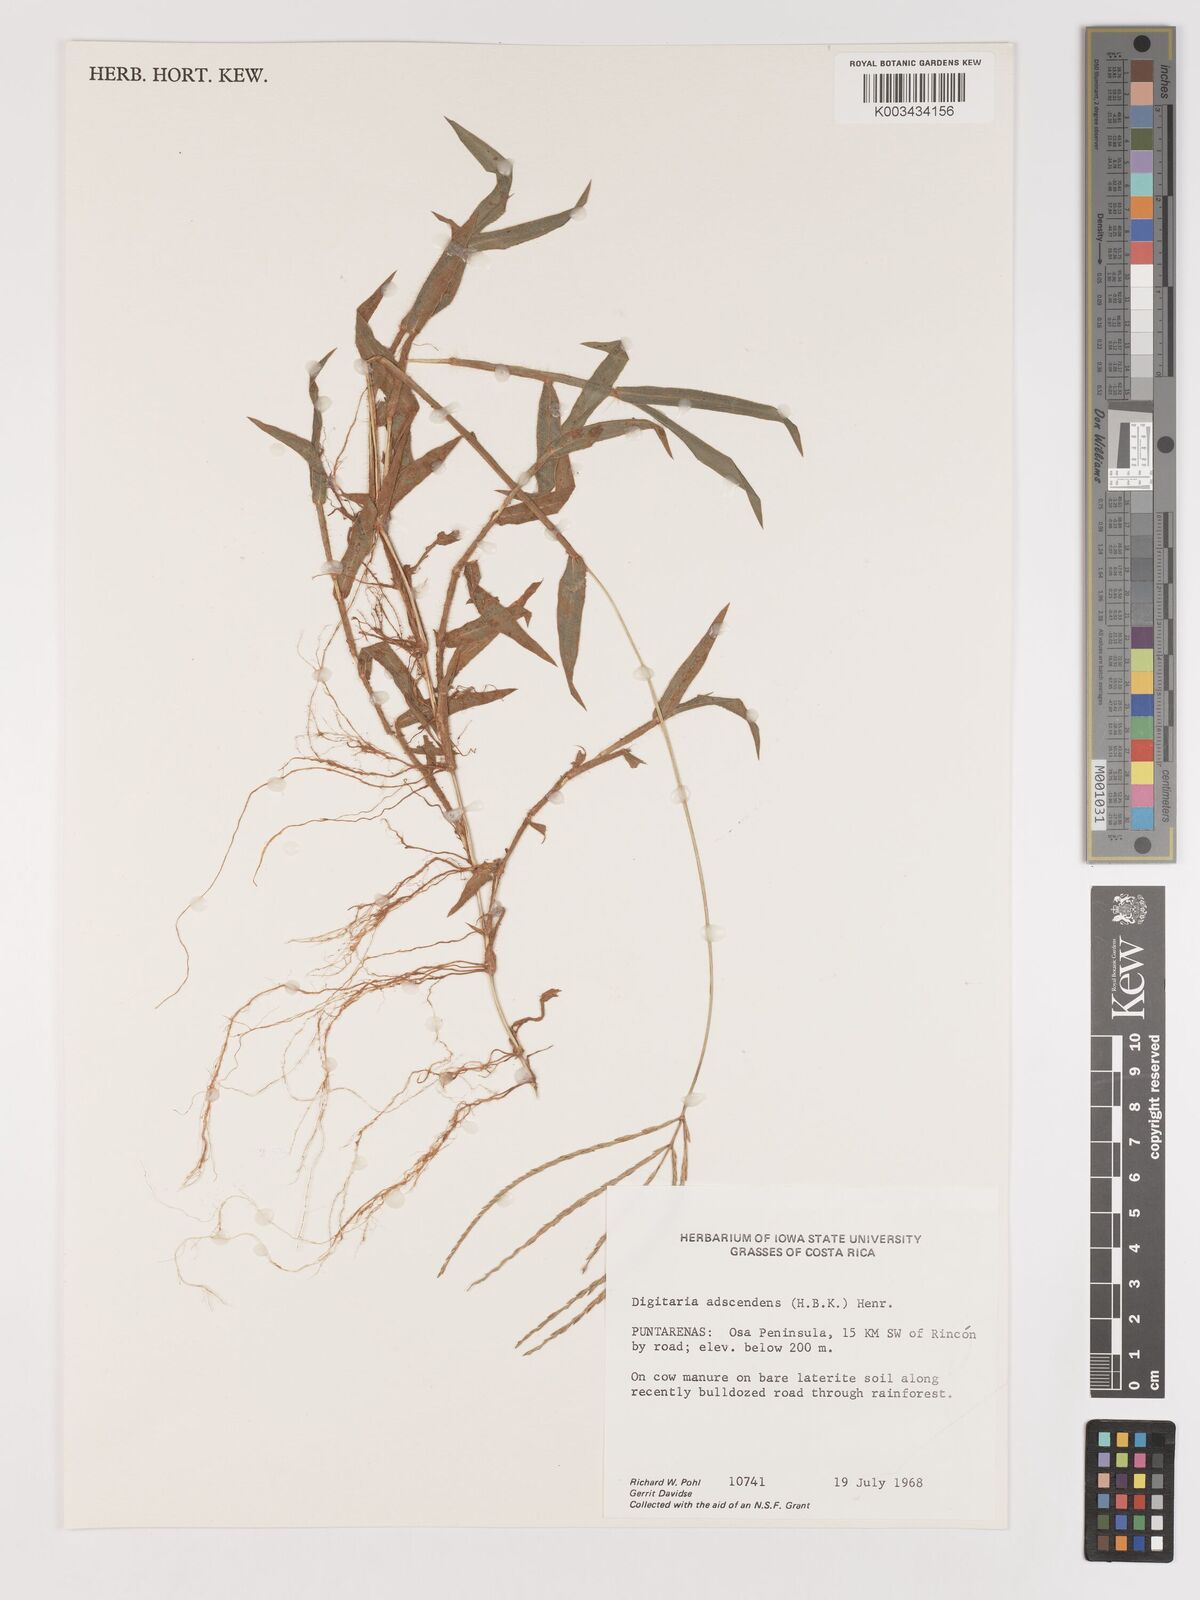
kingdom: Plantae
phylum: Tracheophyta
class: Liliopsida
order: Poales
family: Poaceae
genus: Digitaria
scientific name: Digitaria ciliaris
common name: Tropical finger-grass
